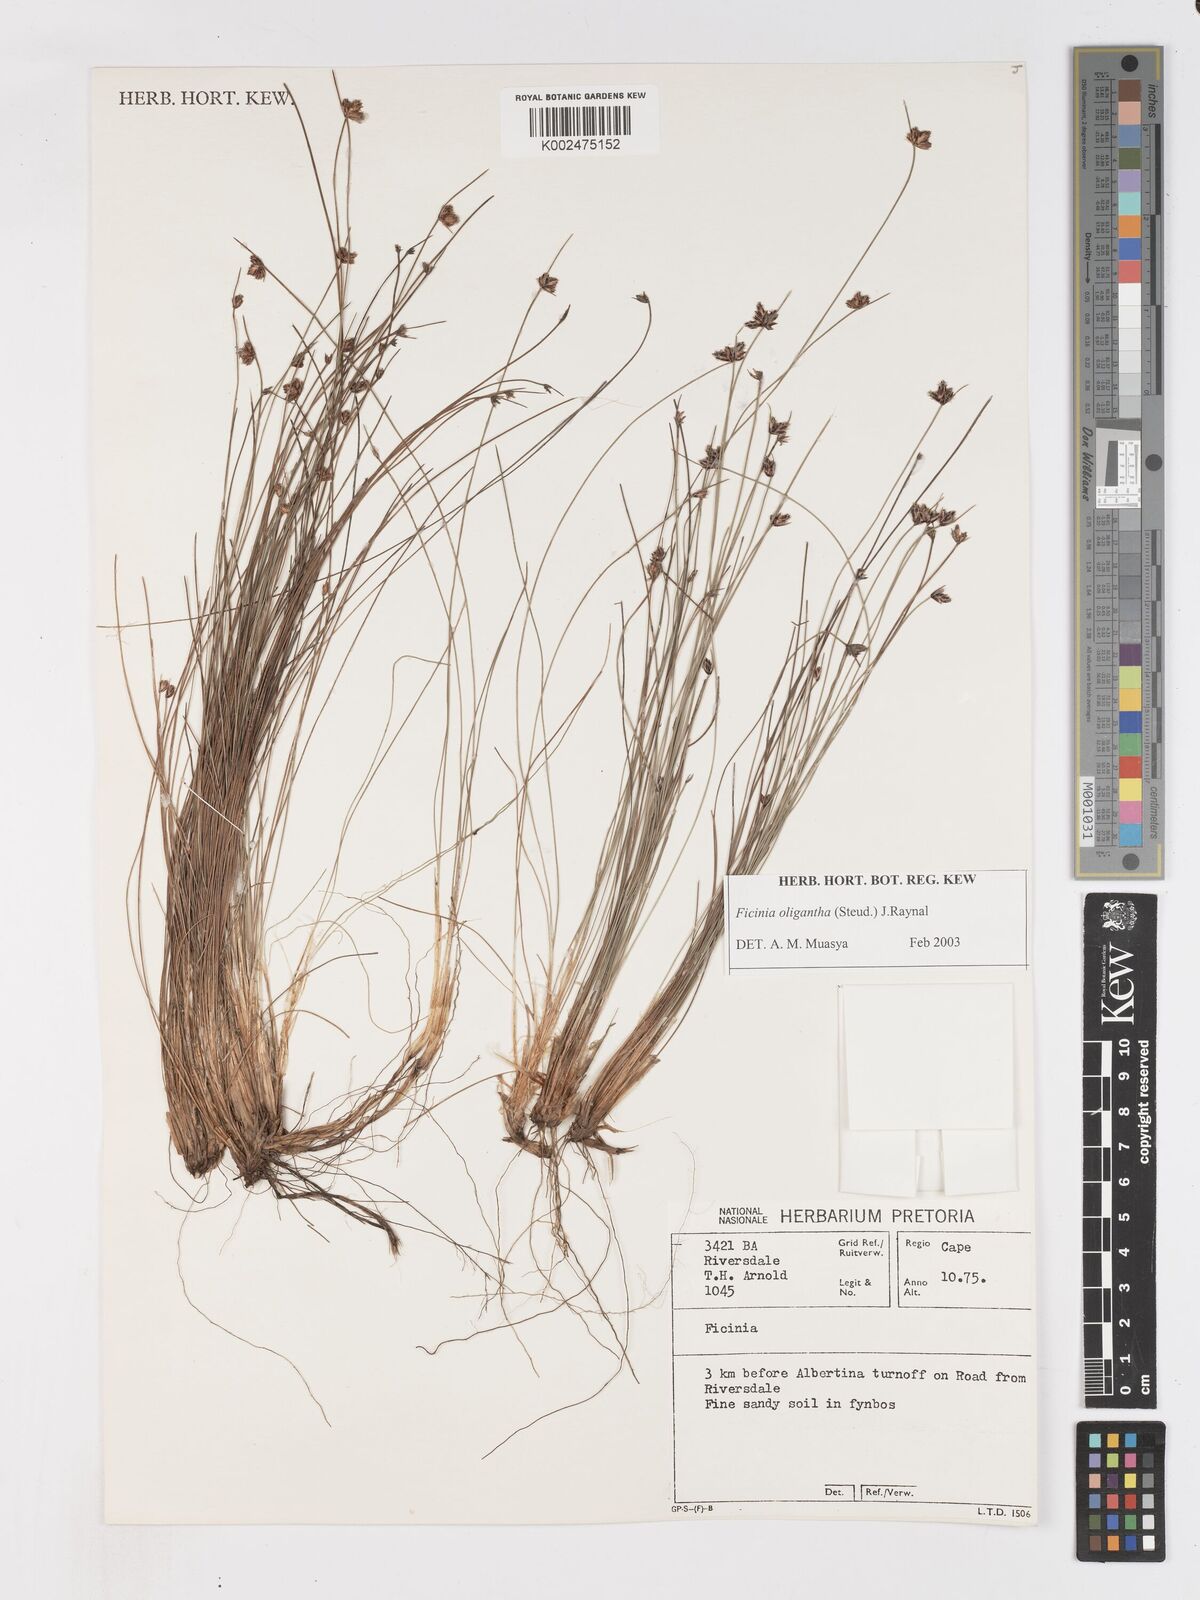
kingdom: Plantae
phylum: Tracheophyta
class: Liliopsida
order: Poales
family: Cyperaceae
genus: Ficinia
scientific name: Ficinia stolonifera
